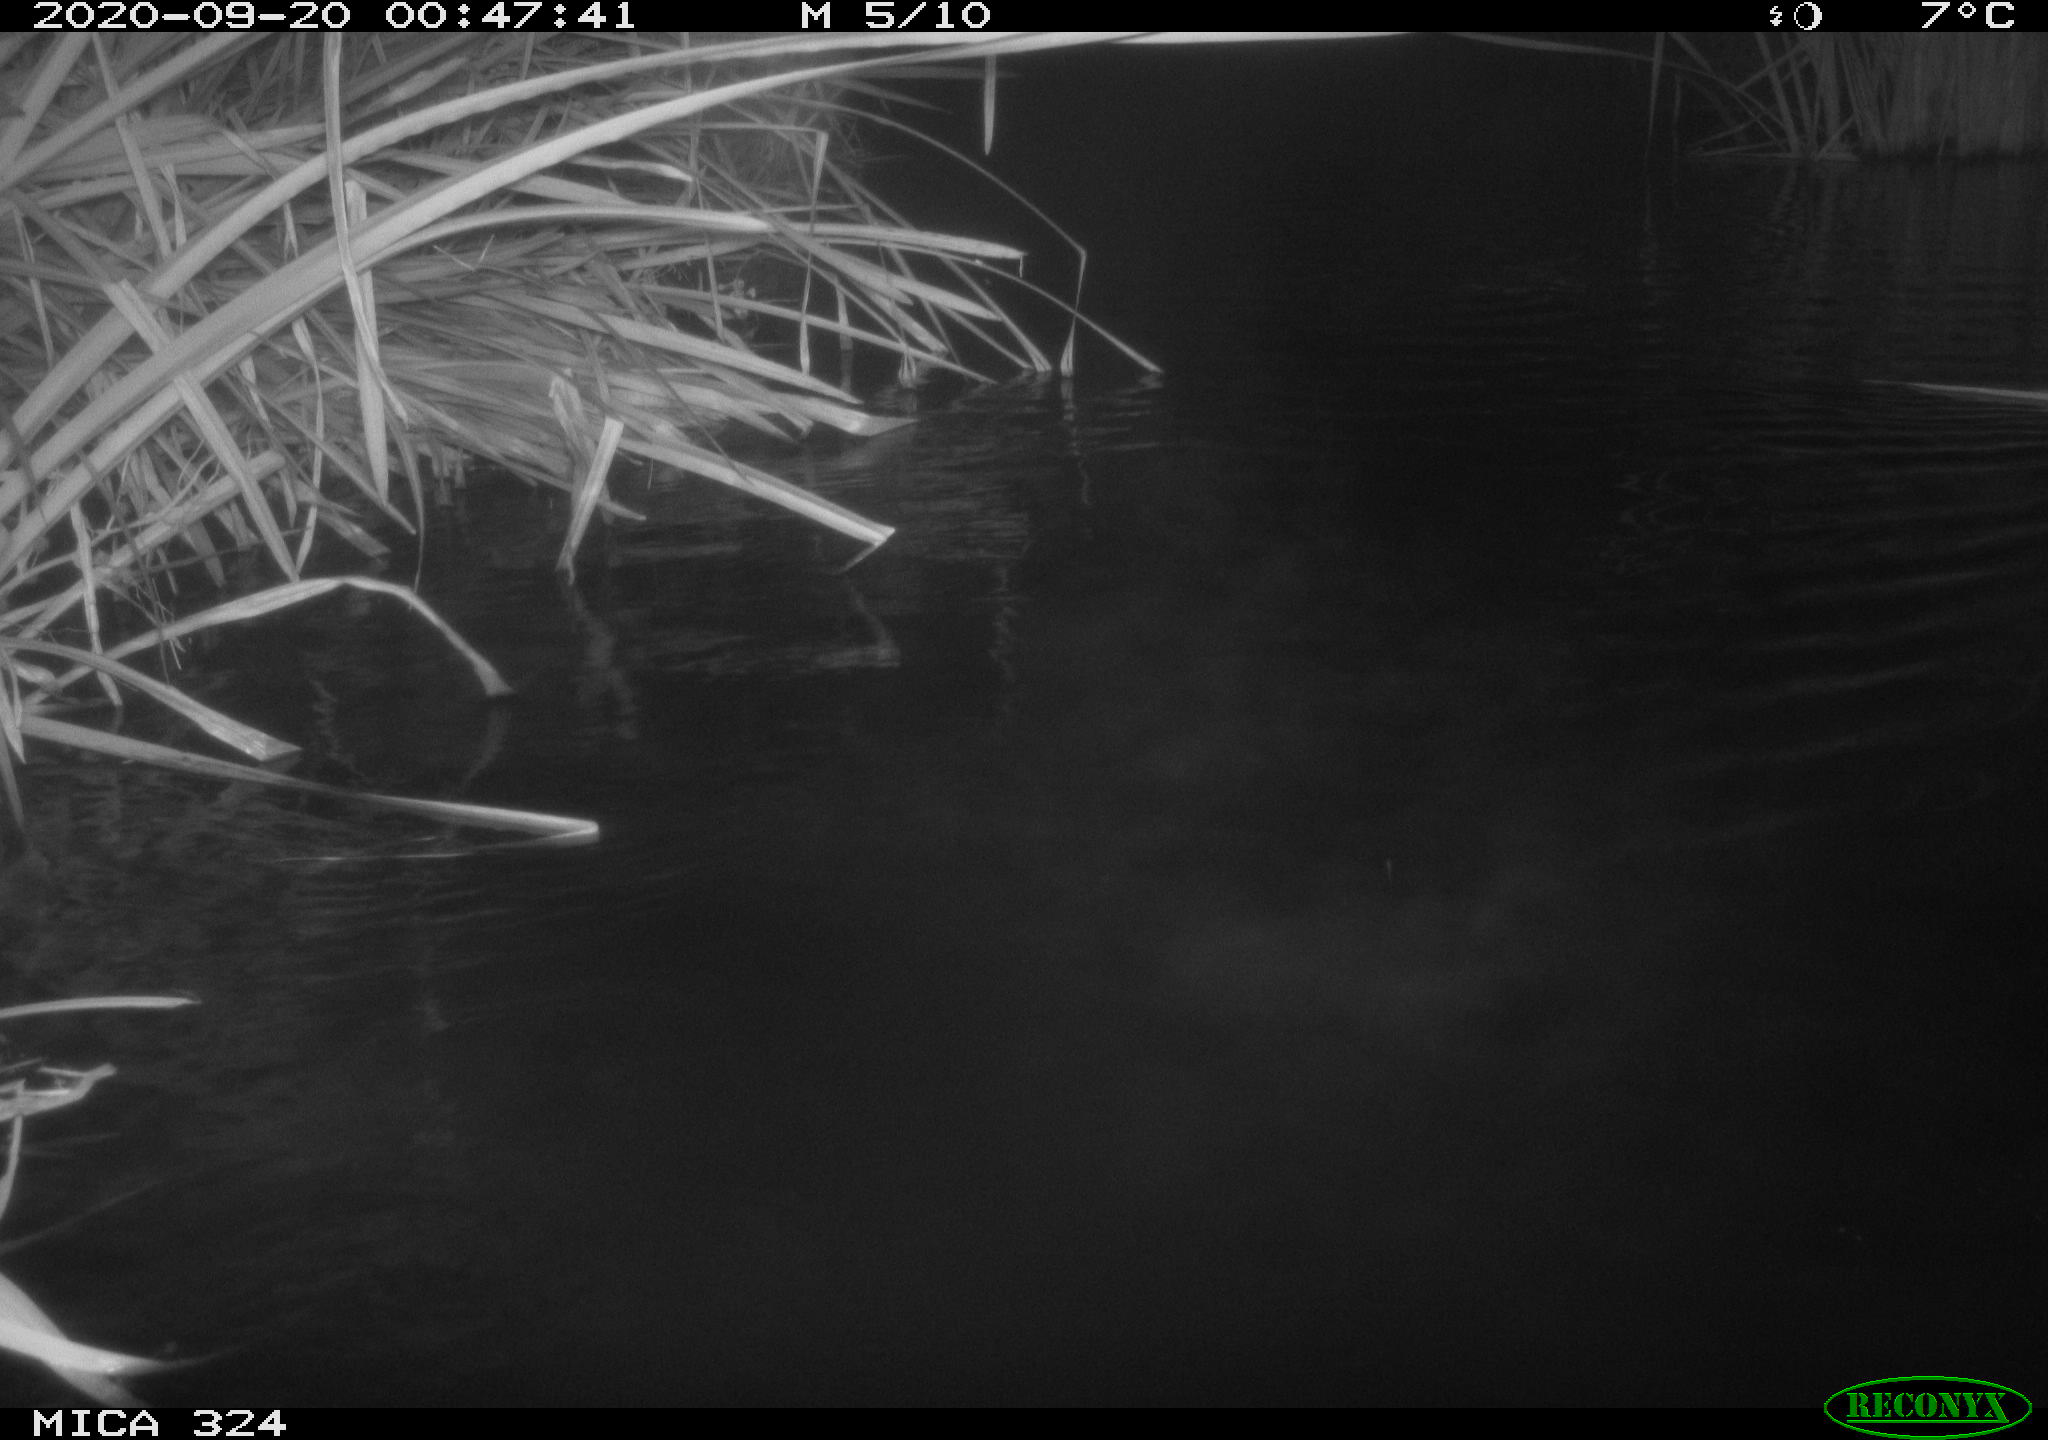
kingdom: Animalia
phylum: Chordata
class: Mammalia
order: Rodentia
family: Cricetidae
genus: Ondatra
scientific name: Ondatra zibethicus
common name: Muskrat
